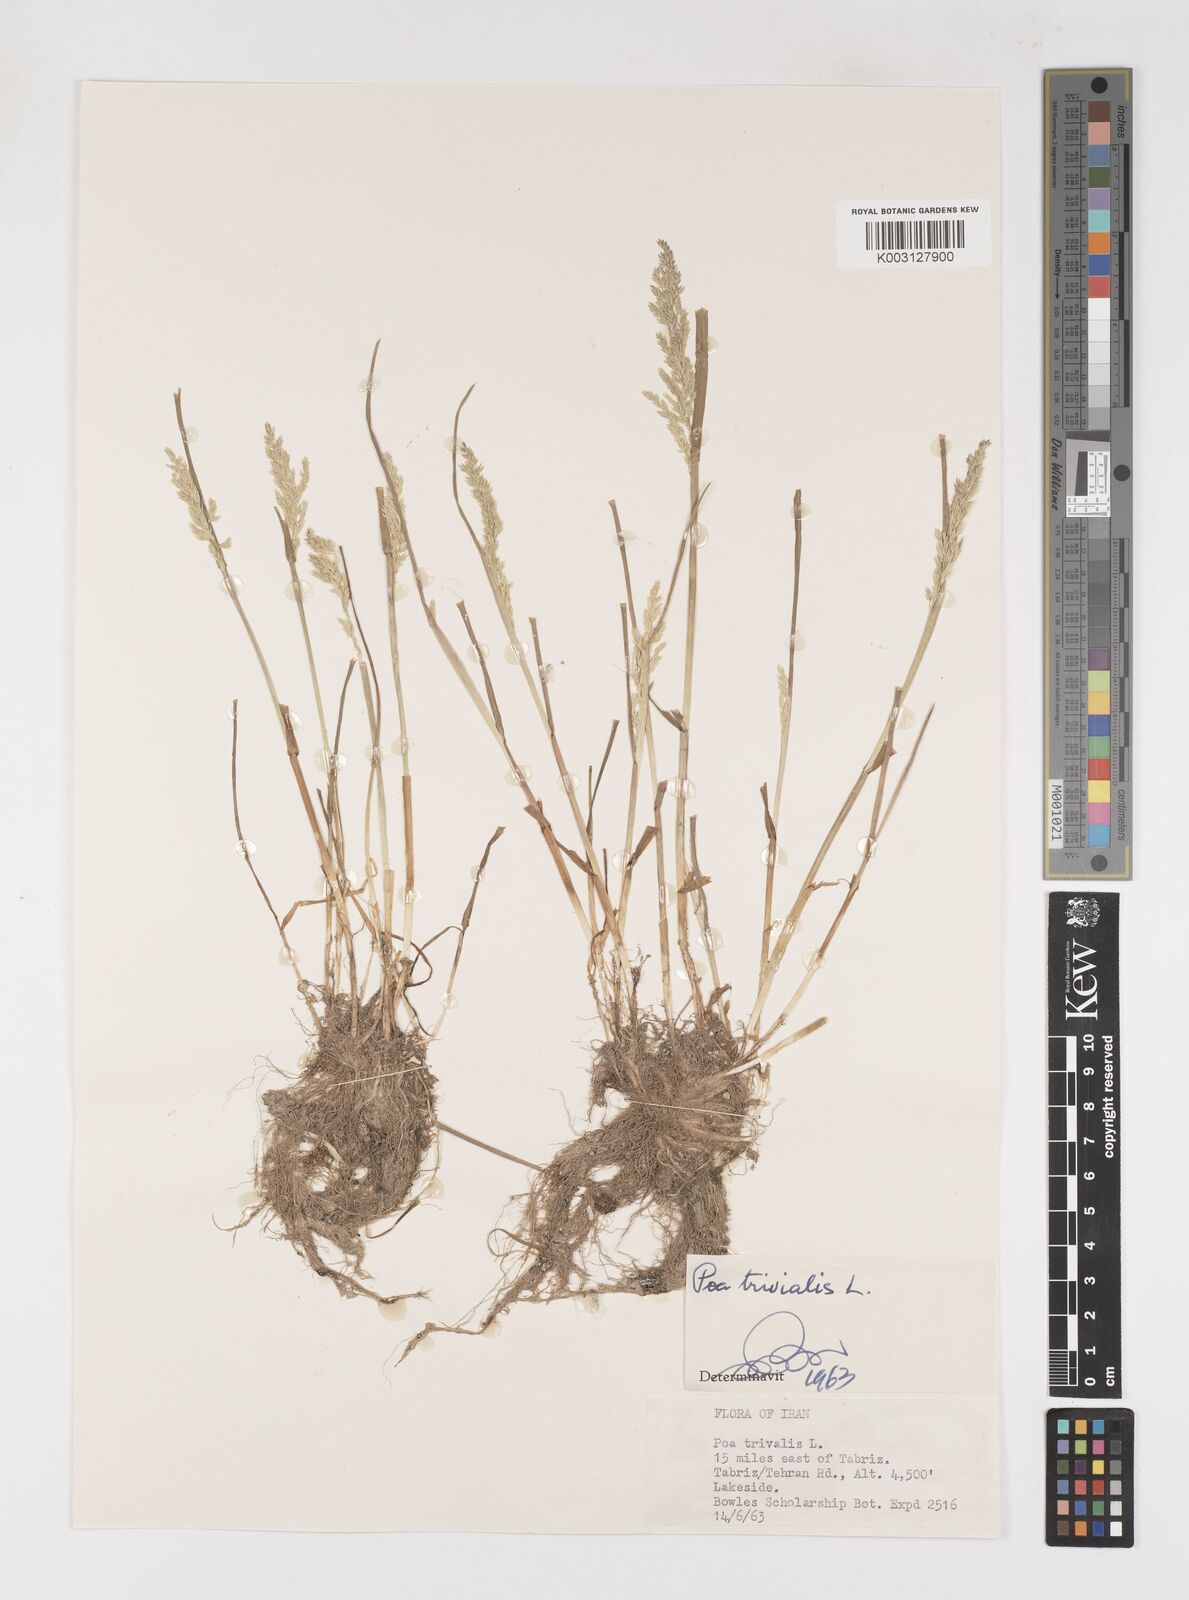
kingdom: Plantae
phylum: Tracheophyta
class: Liliopsida
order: Poales
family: Poaceae
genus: Poa
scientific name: Poa trivialis
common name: Rough bluegrass
